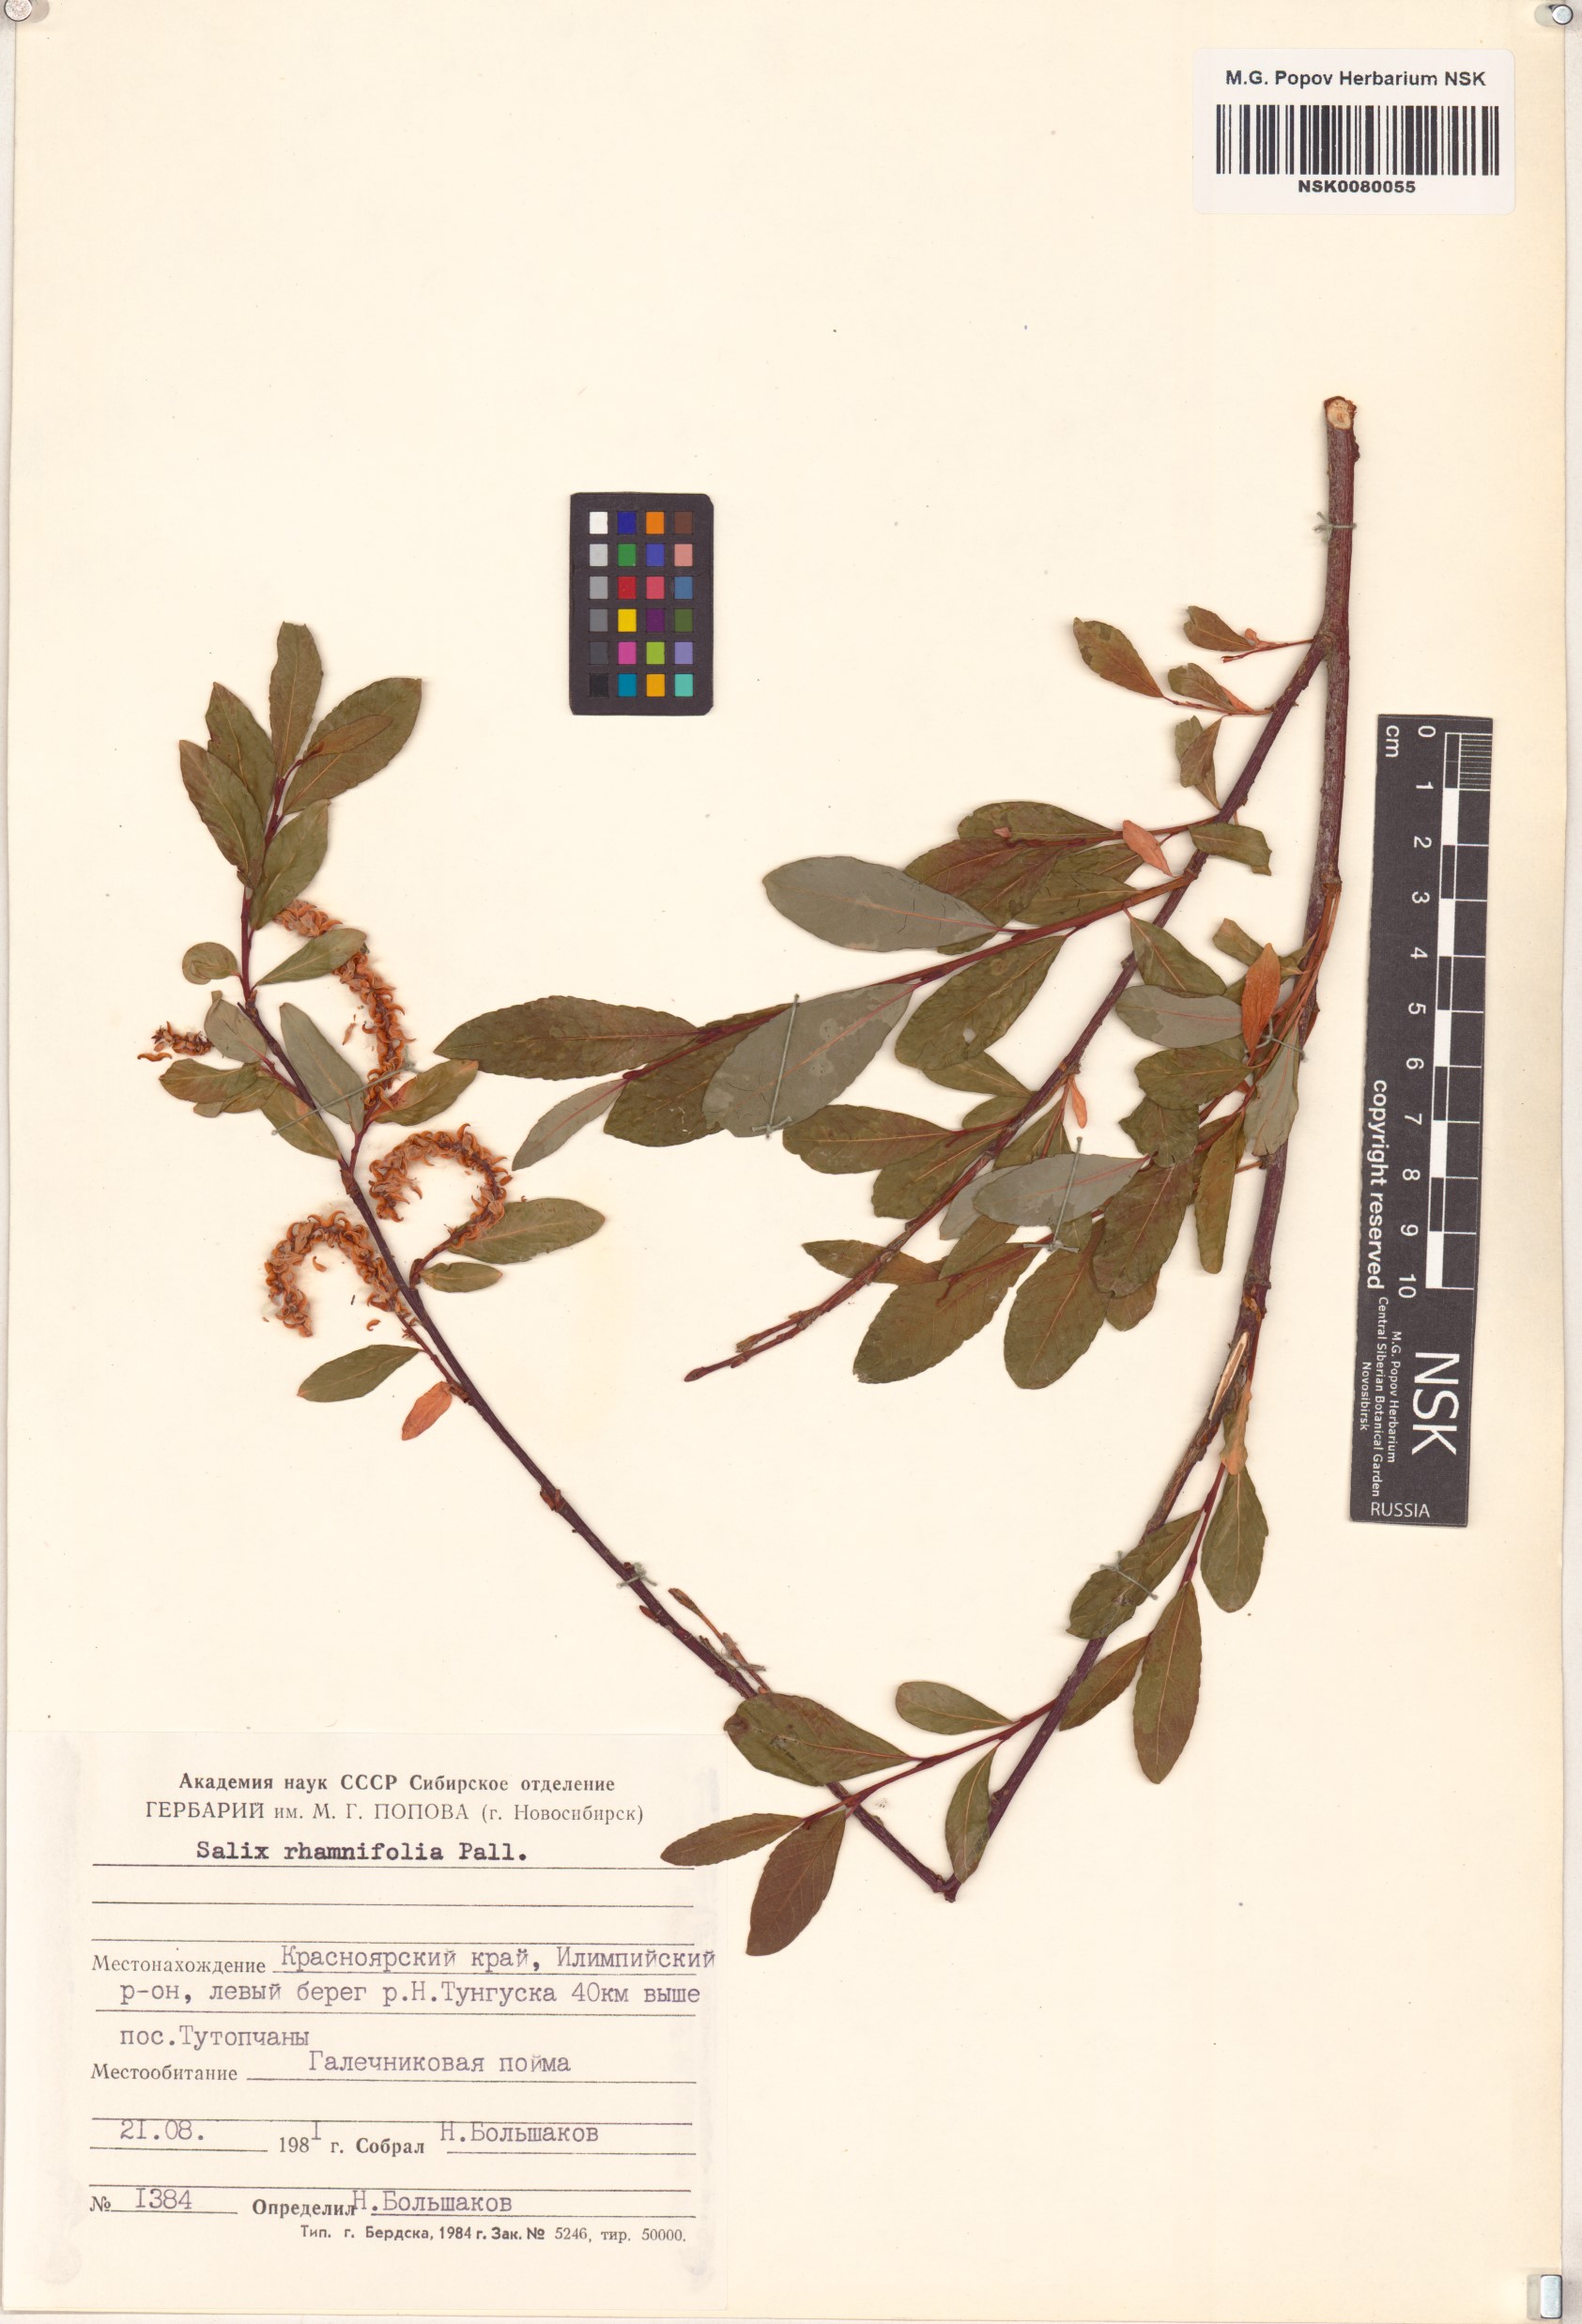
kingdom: Plantae
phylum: Tracheophyta
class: Magnoliopsida
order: Malpighiales
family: Salicaceae
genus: Salix
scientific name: Salix rhamnifolia
